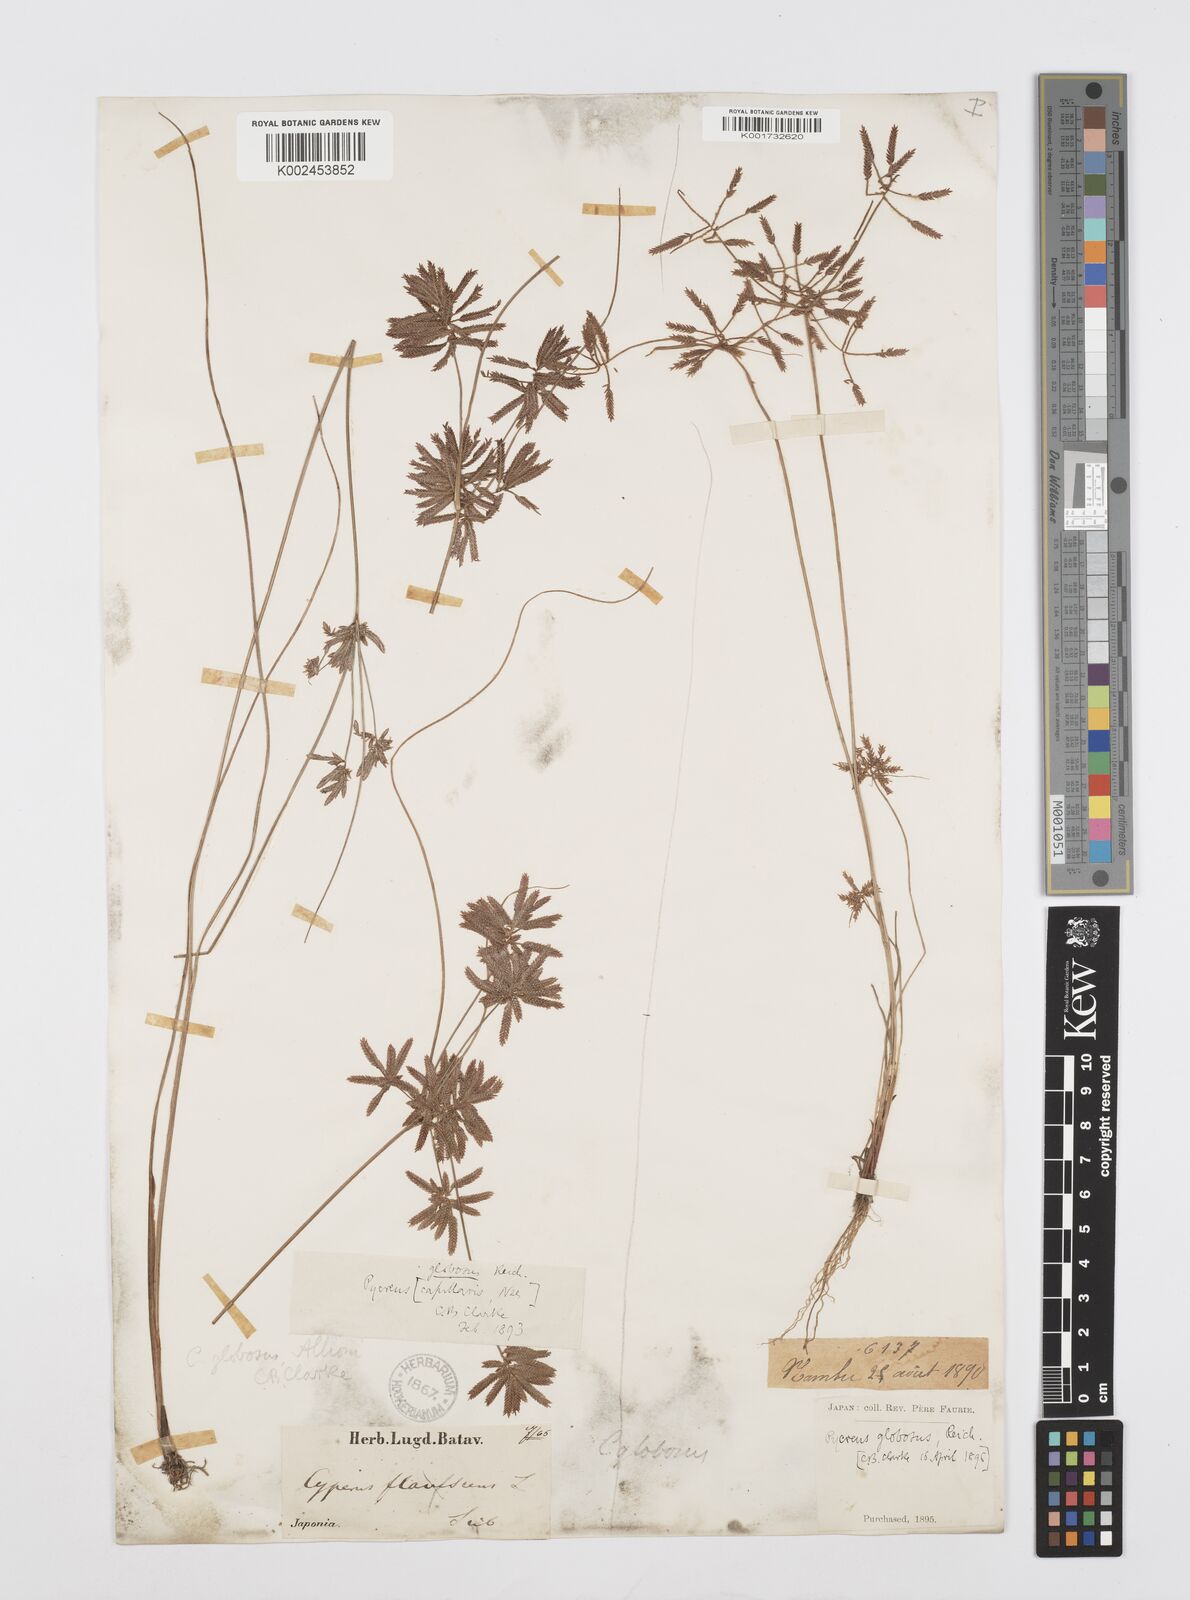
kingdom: Plantae
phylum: Tracheophyta
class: Liliopsida
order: Poales
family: Cyperaceae
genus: Cyperus
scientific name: Cyperus flavidus
